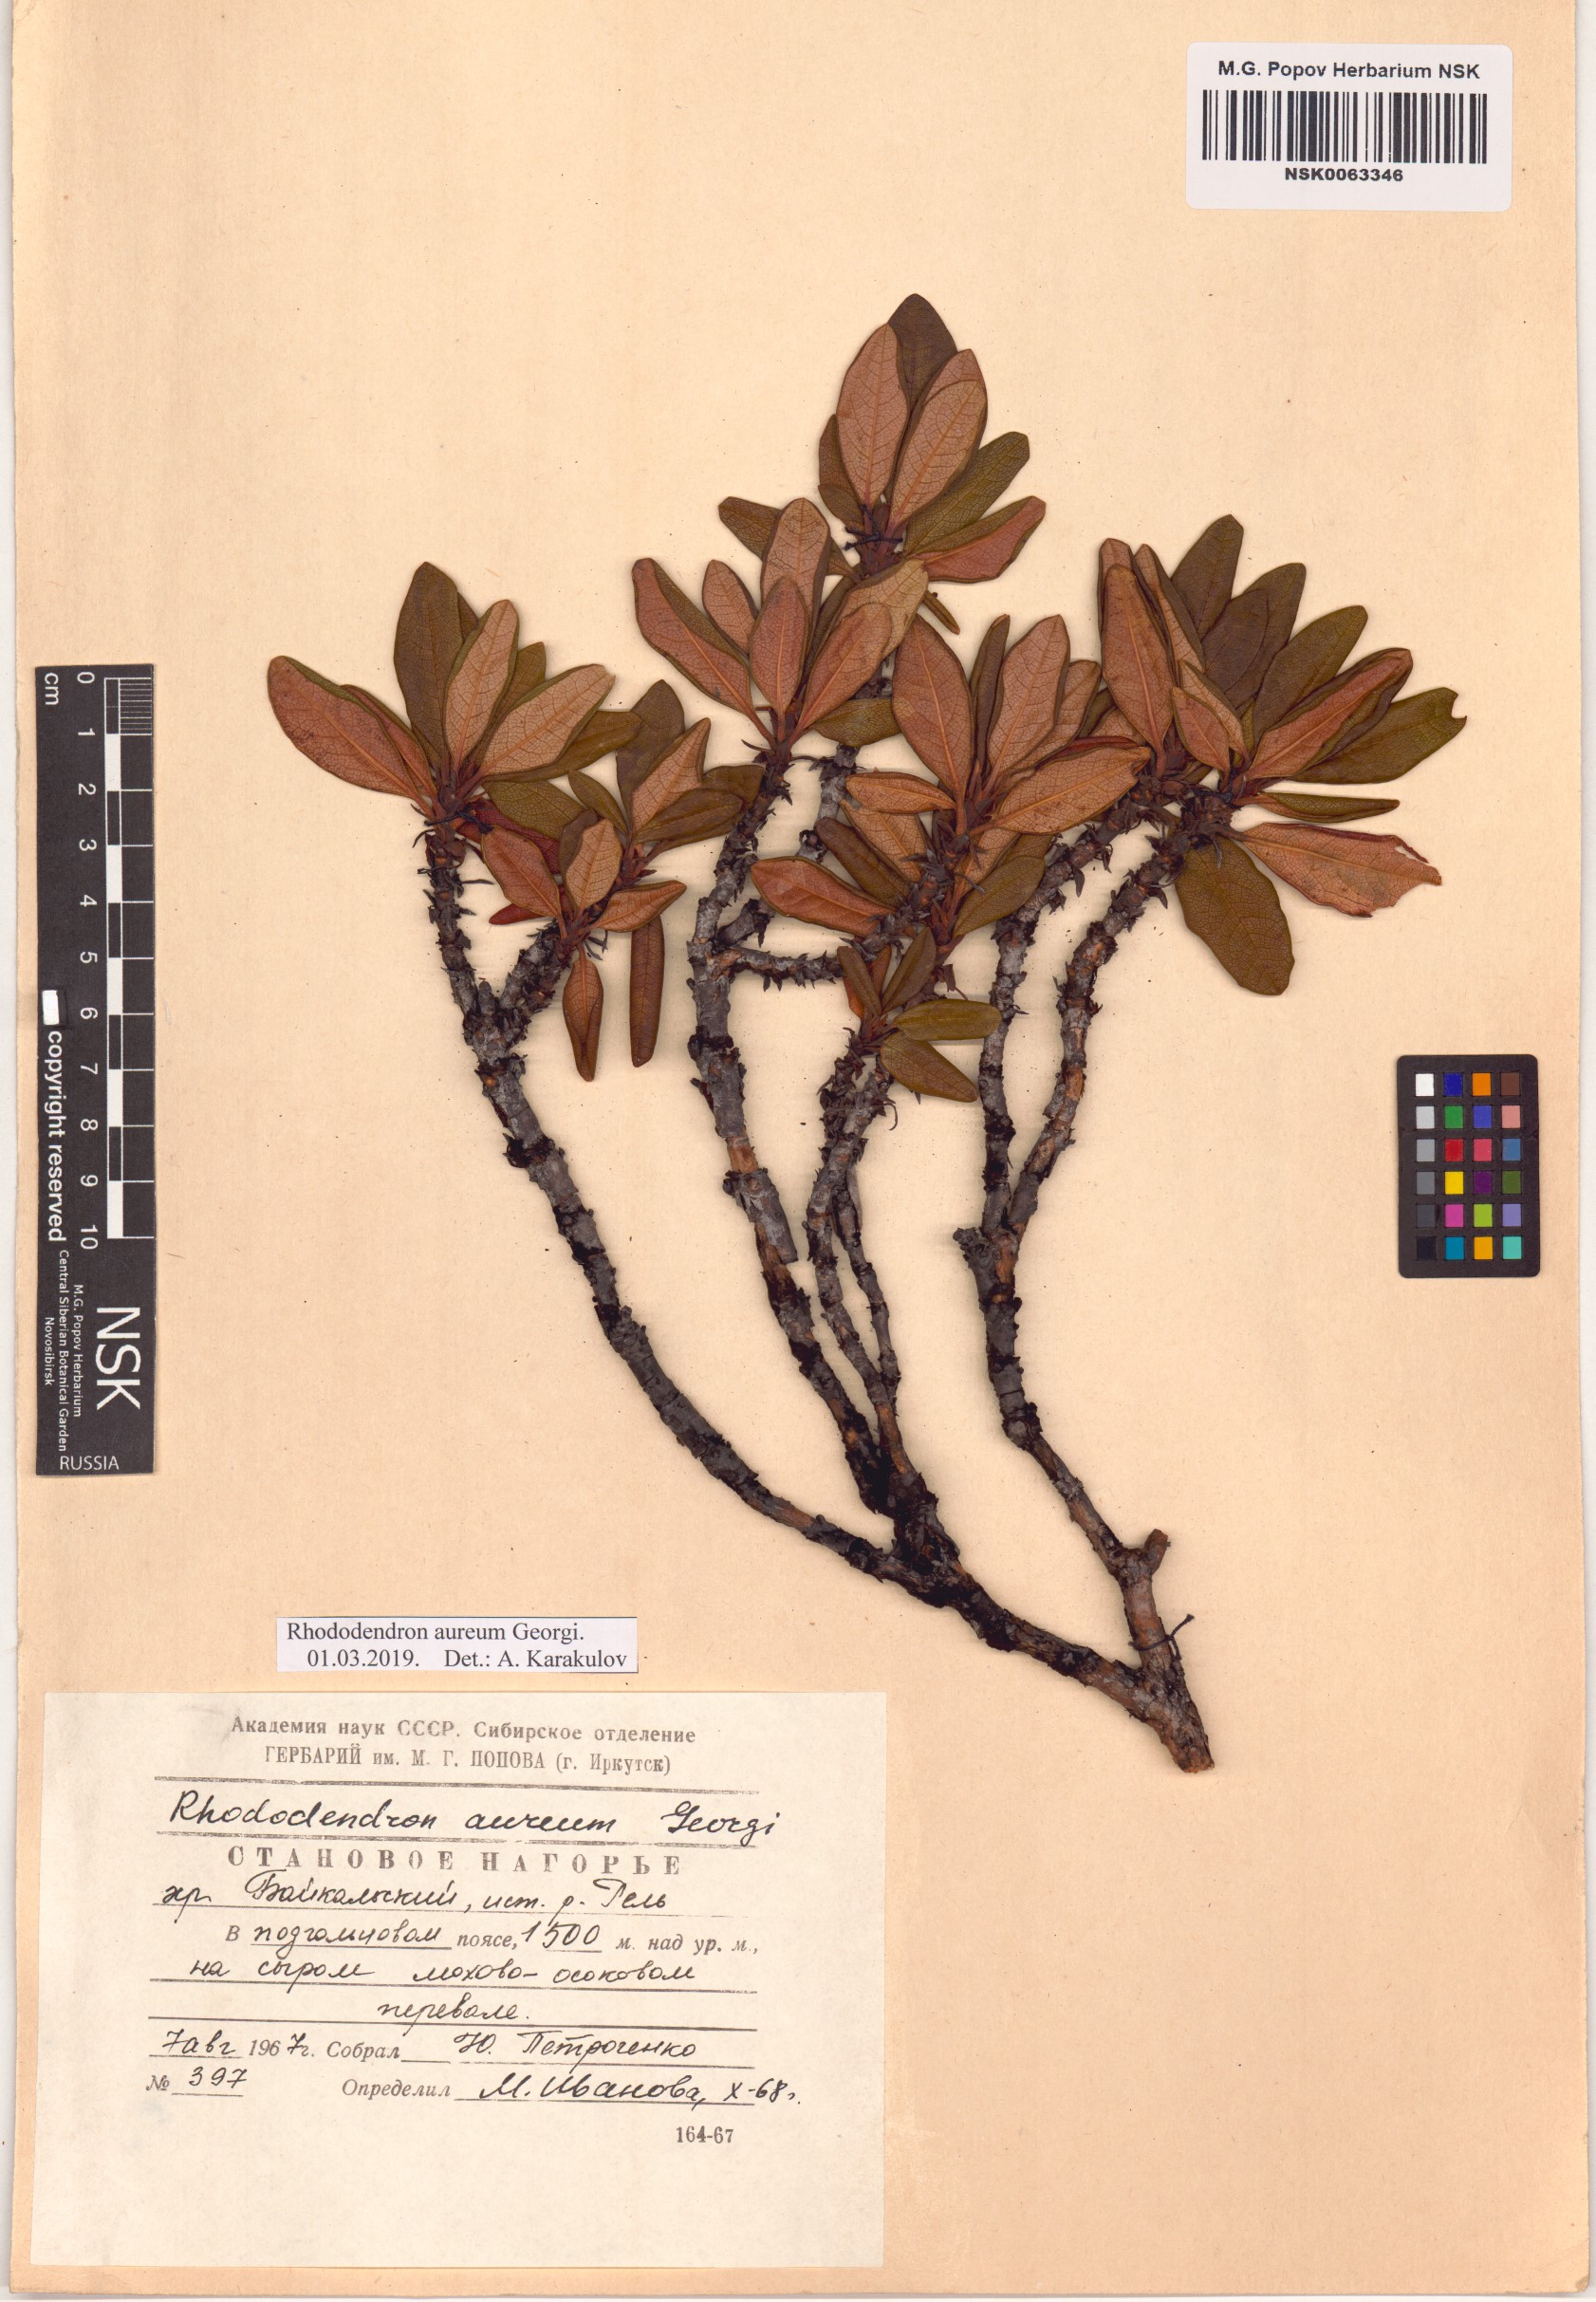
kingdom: Plantae
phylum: Tracheophyta
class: Magnoliopsida
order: Ericales
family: Ericaceae
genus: Rhododendron
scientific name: Rhododendron aureum
